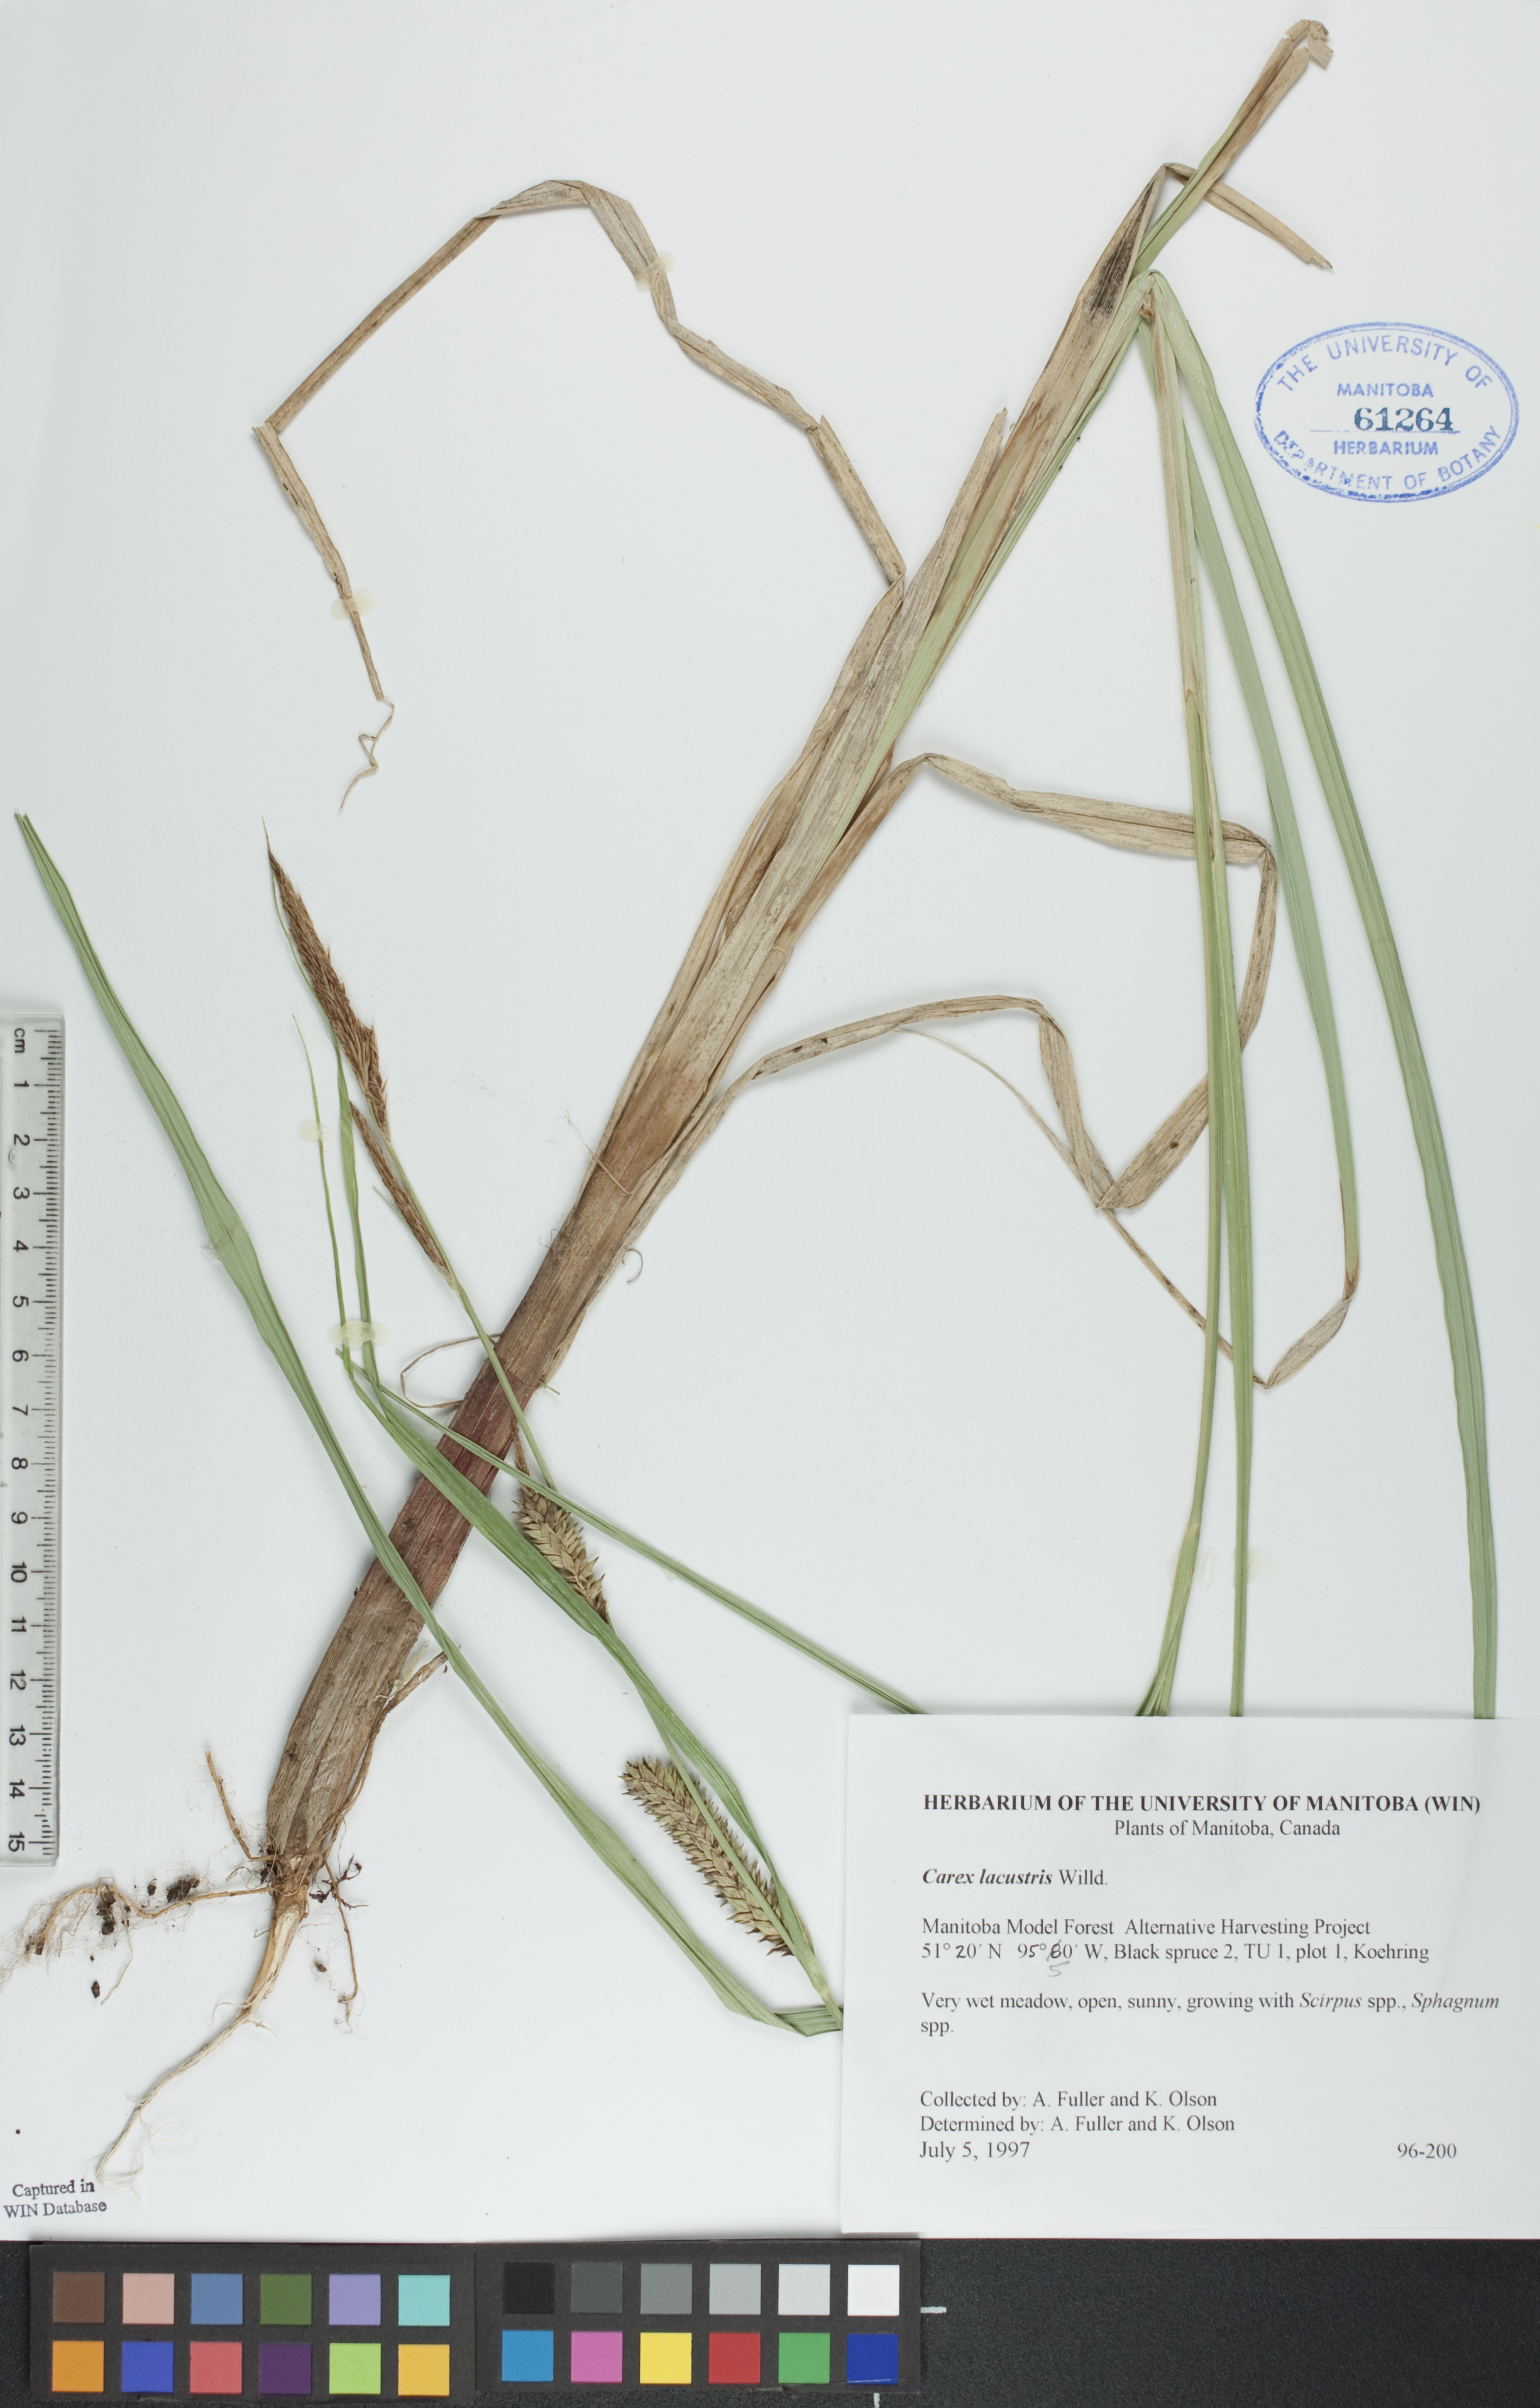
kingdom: Plantae
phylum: Tracheophyta
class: Liliopsida
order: Poales
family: Cyperaceae
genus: Carex
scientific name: Carex lacustris
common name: Common lake sedge
